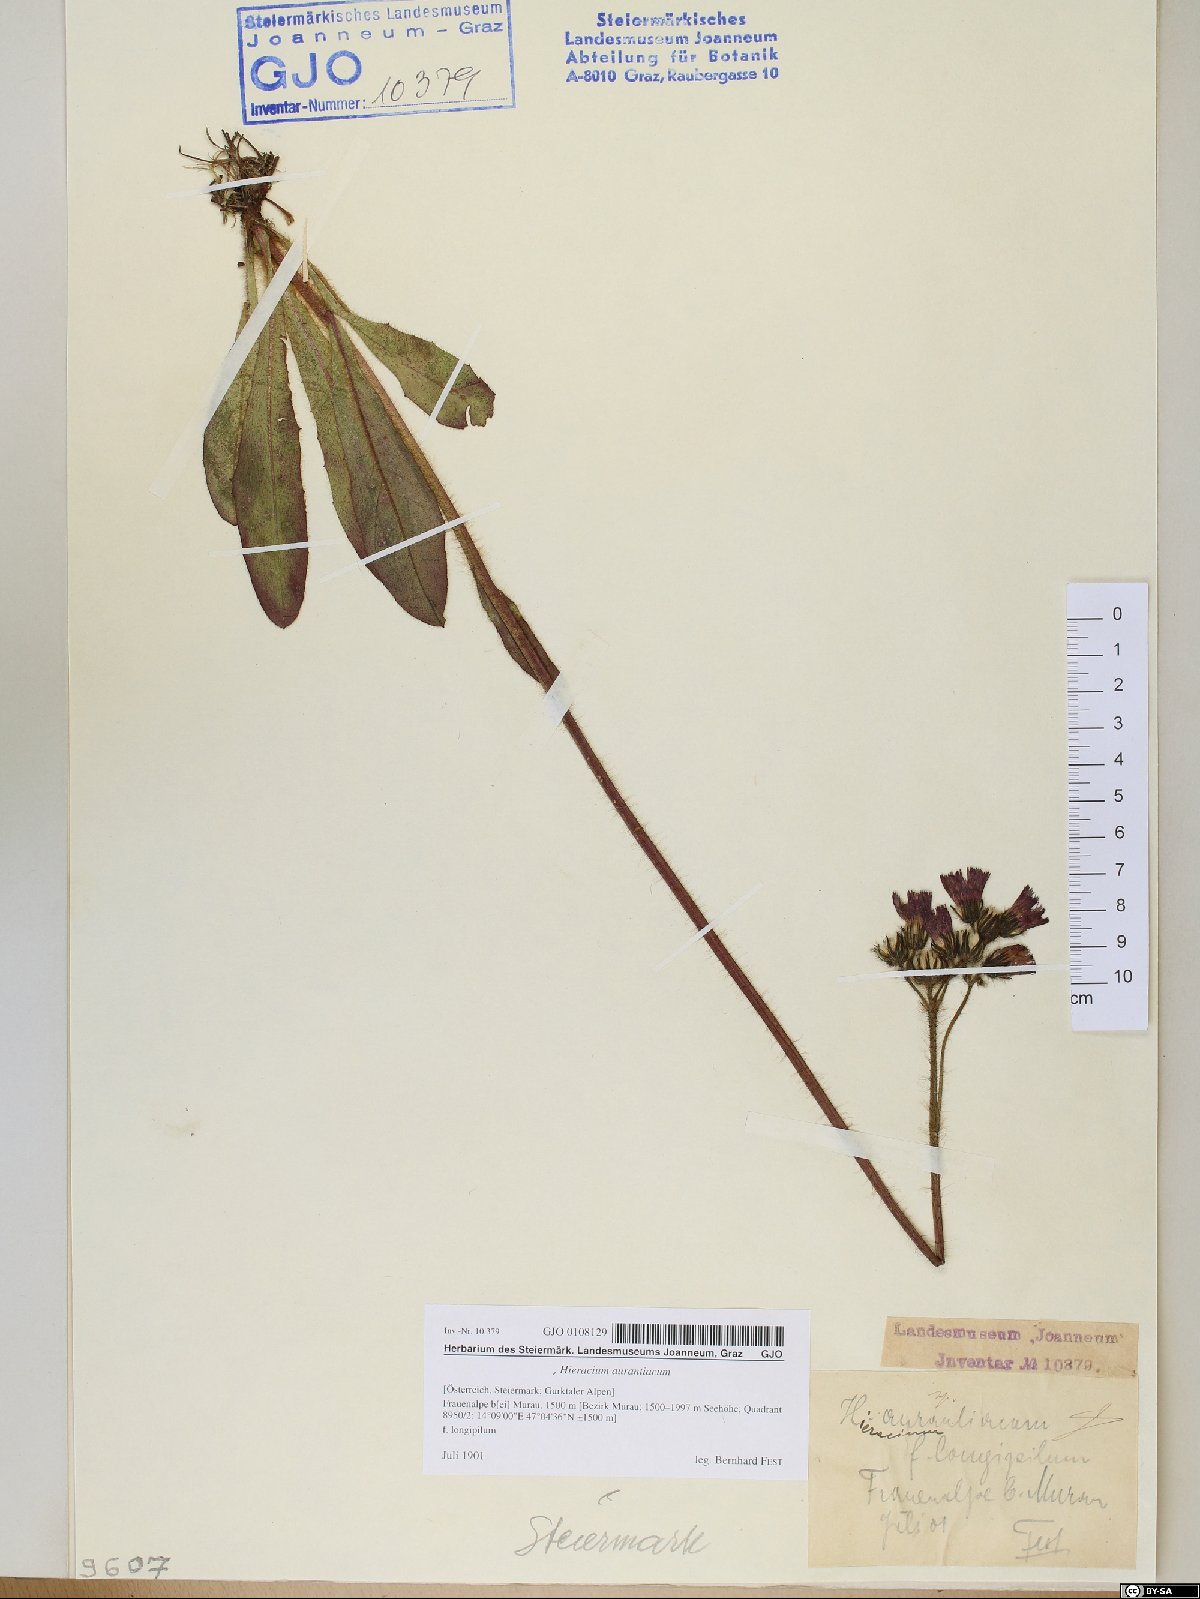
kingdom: Plantae
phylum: Tracheophyta
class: Magnoliopsida
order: Asterales
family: Asteraceae
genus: Pilosella
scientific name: Pilosella aurantiaca
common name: Fox-and-cubs
